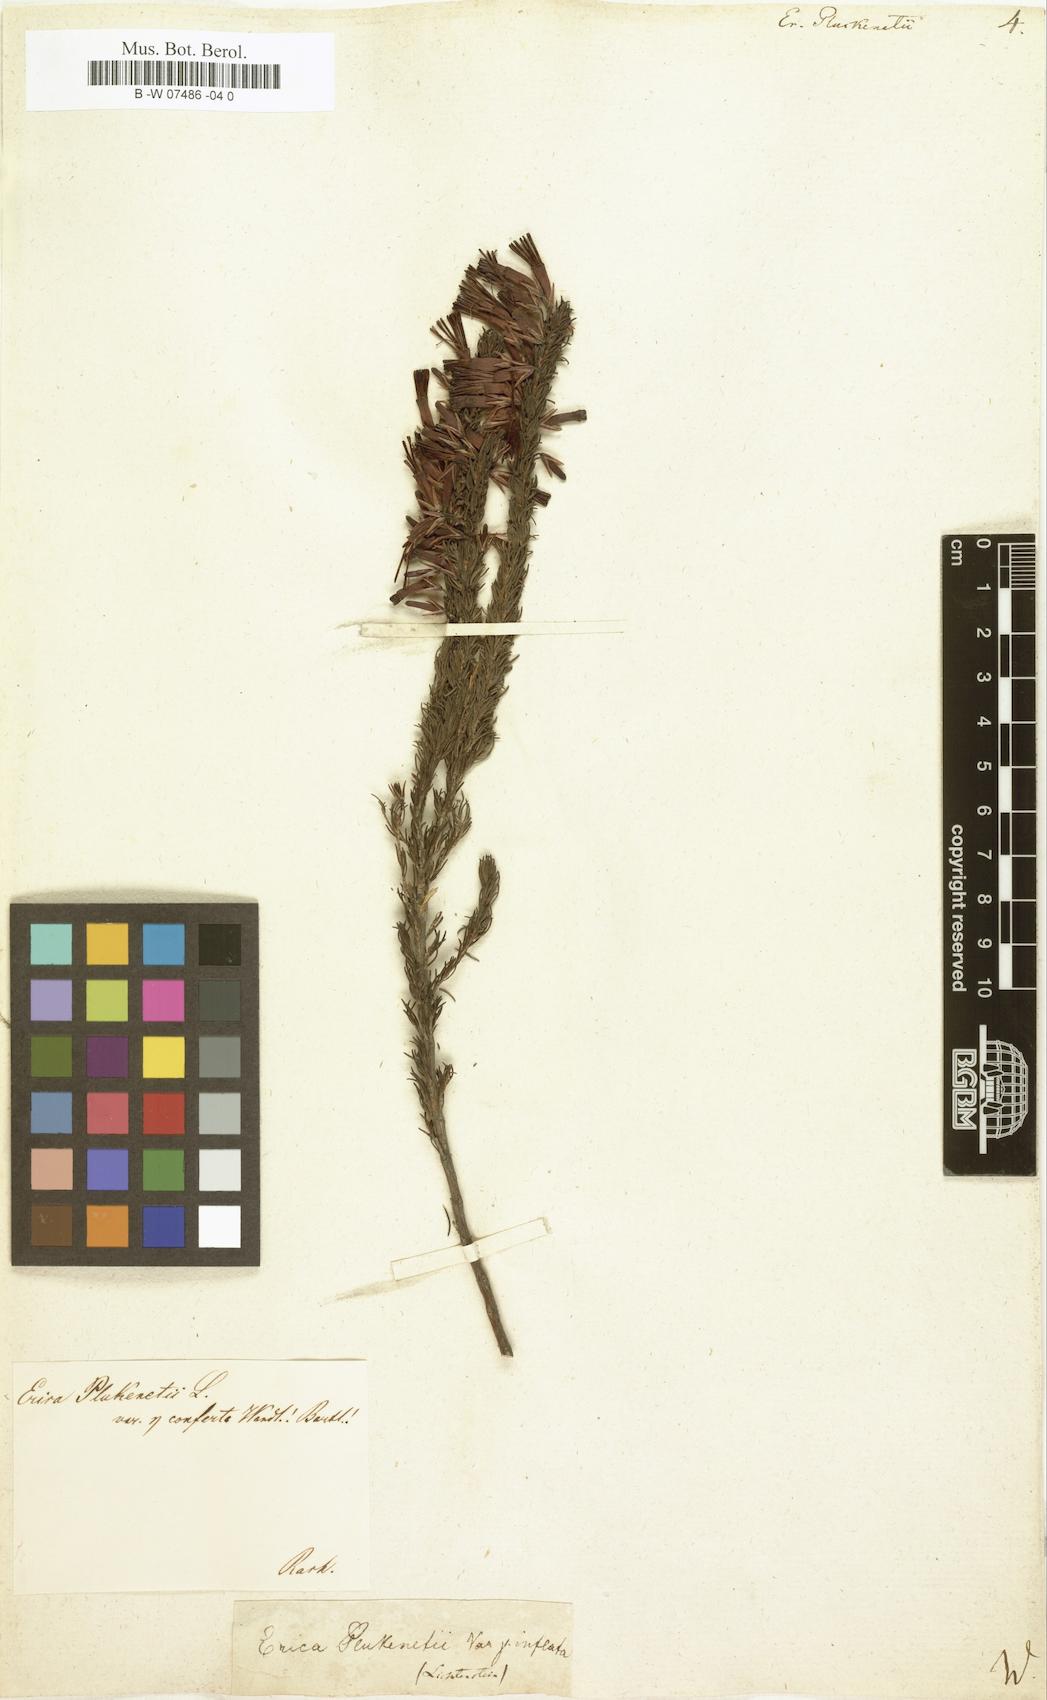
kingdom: Plantae
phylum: Tracheophyta
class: Magnoliopsida
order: Ericales
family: Ericaceae
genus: Erica
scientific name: Erica plukenetii
